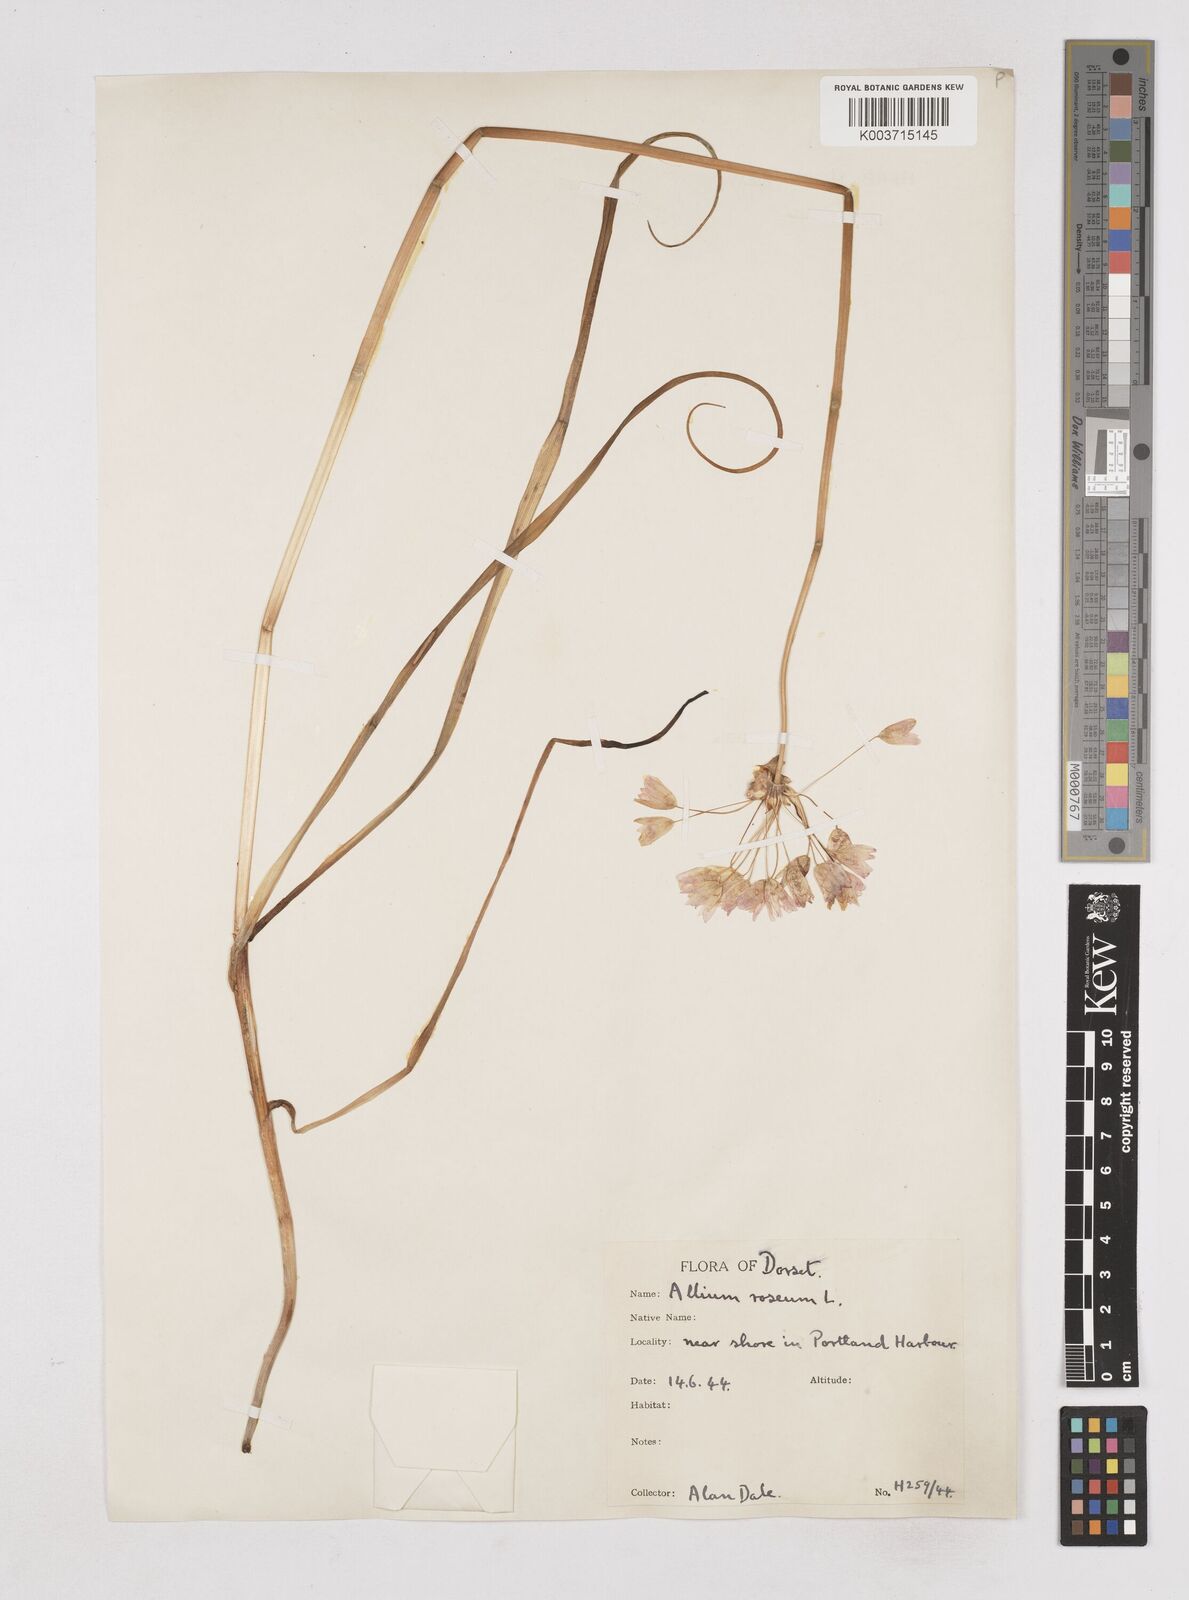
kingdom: Plantae
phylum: Tracheophyta
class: Liliopsida
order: Asparagales
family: Amaryllidaceae
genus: Allium
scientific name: Allium roseum
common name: Rosy garlic
